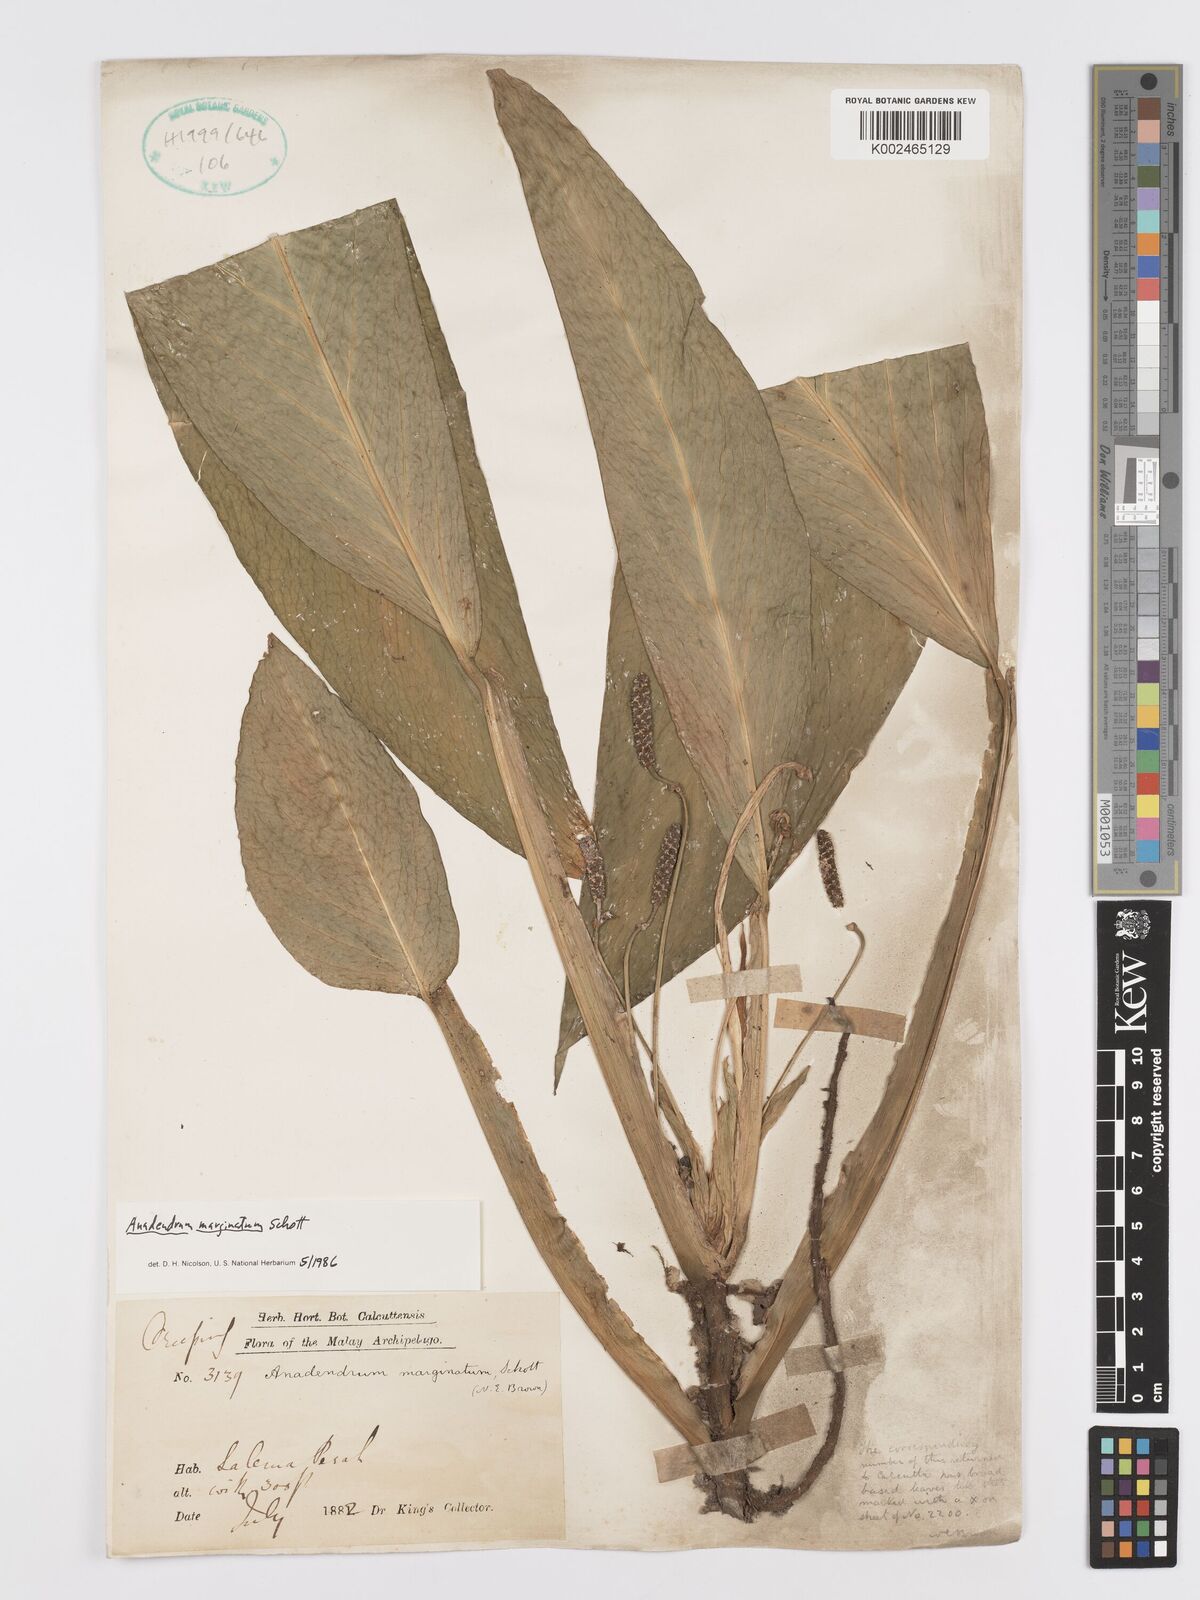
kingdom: Plantae
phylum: Tracheophyta
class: Liliopsida
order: Alismatales
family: Araceae
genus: Anadendrum
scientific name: Anadendrum marginatum
